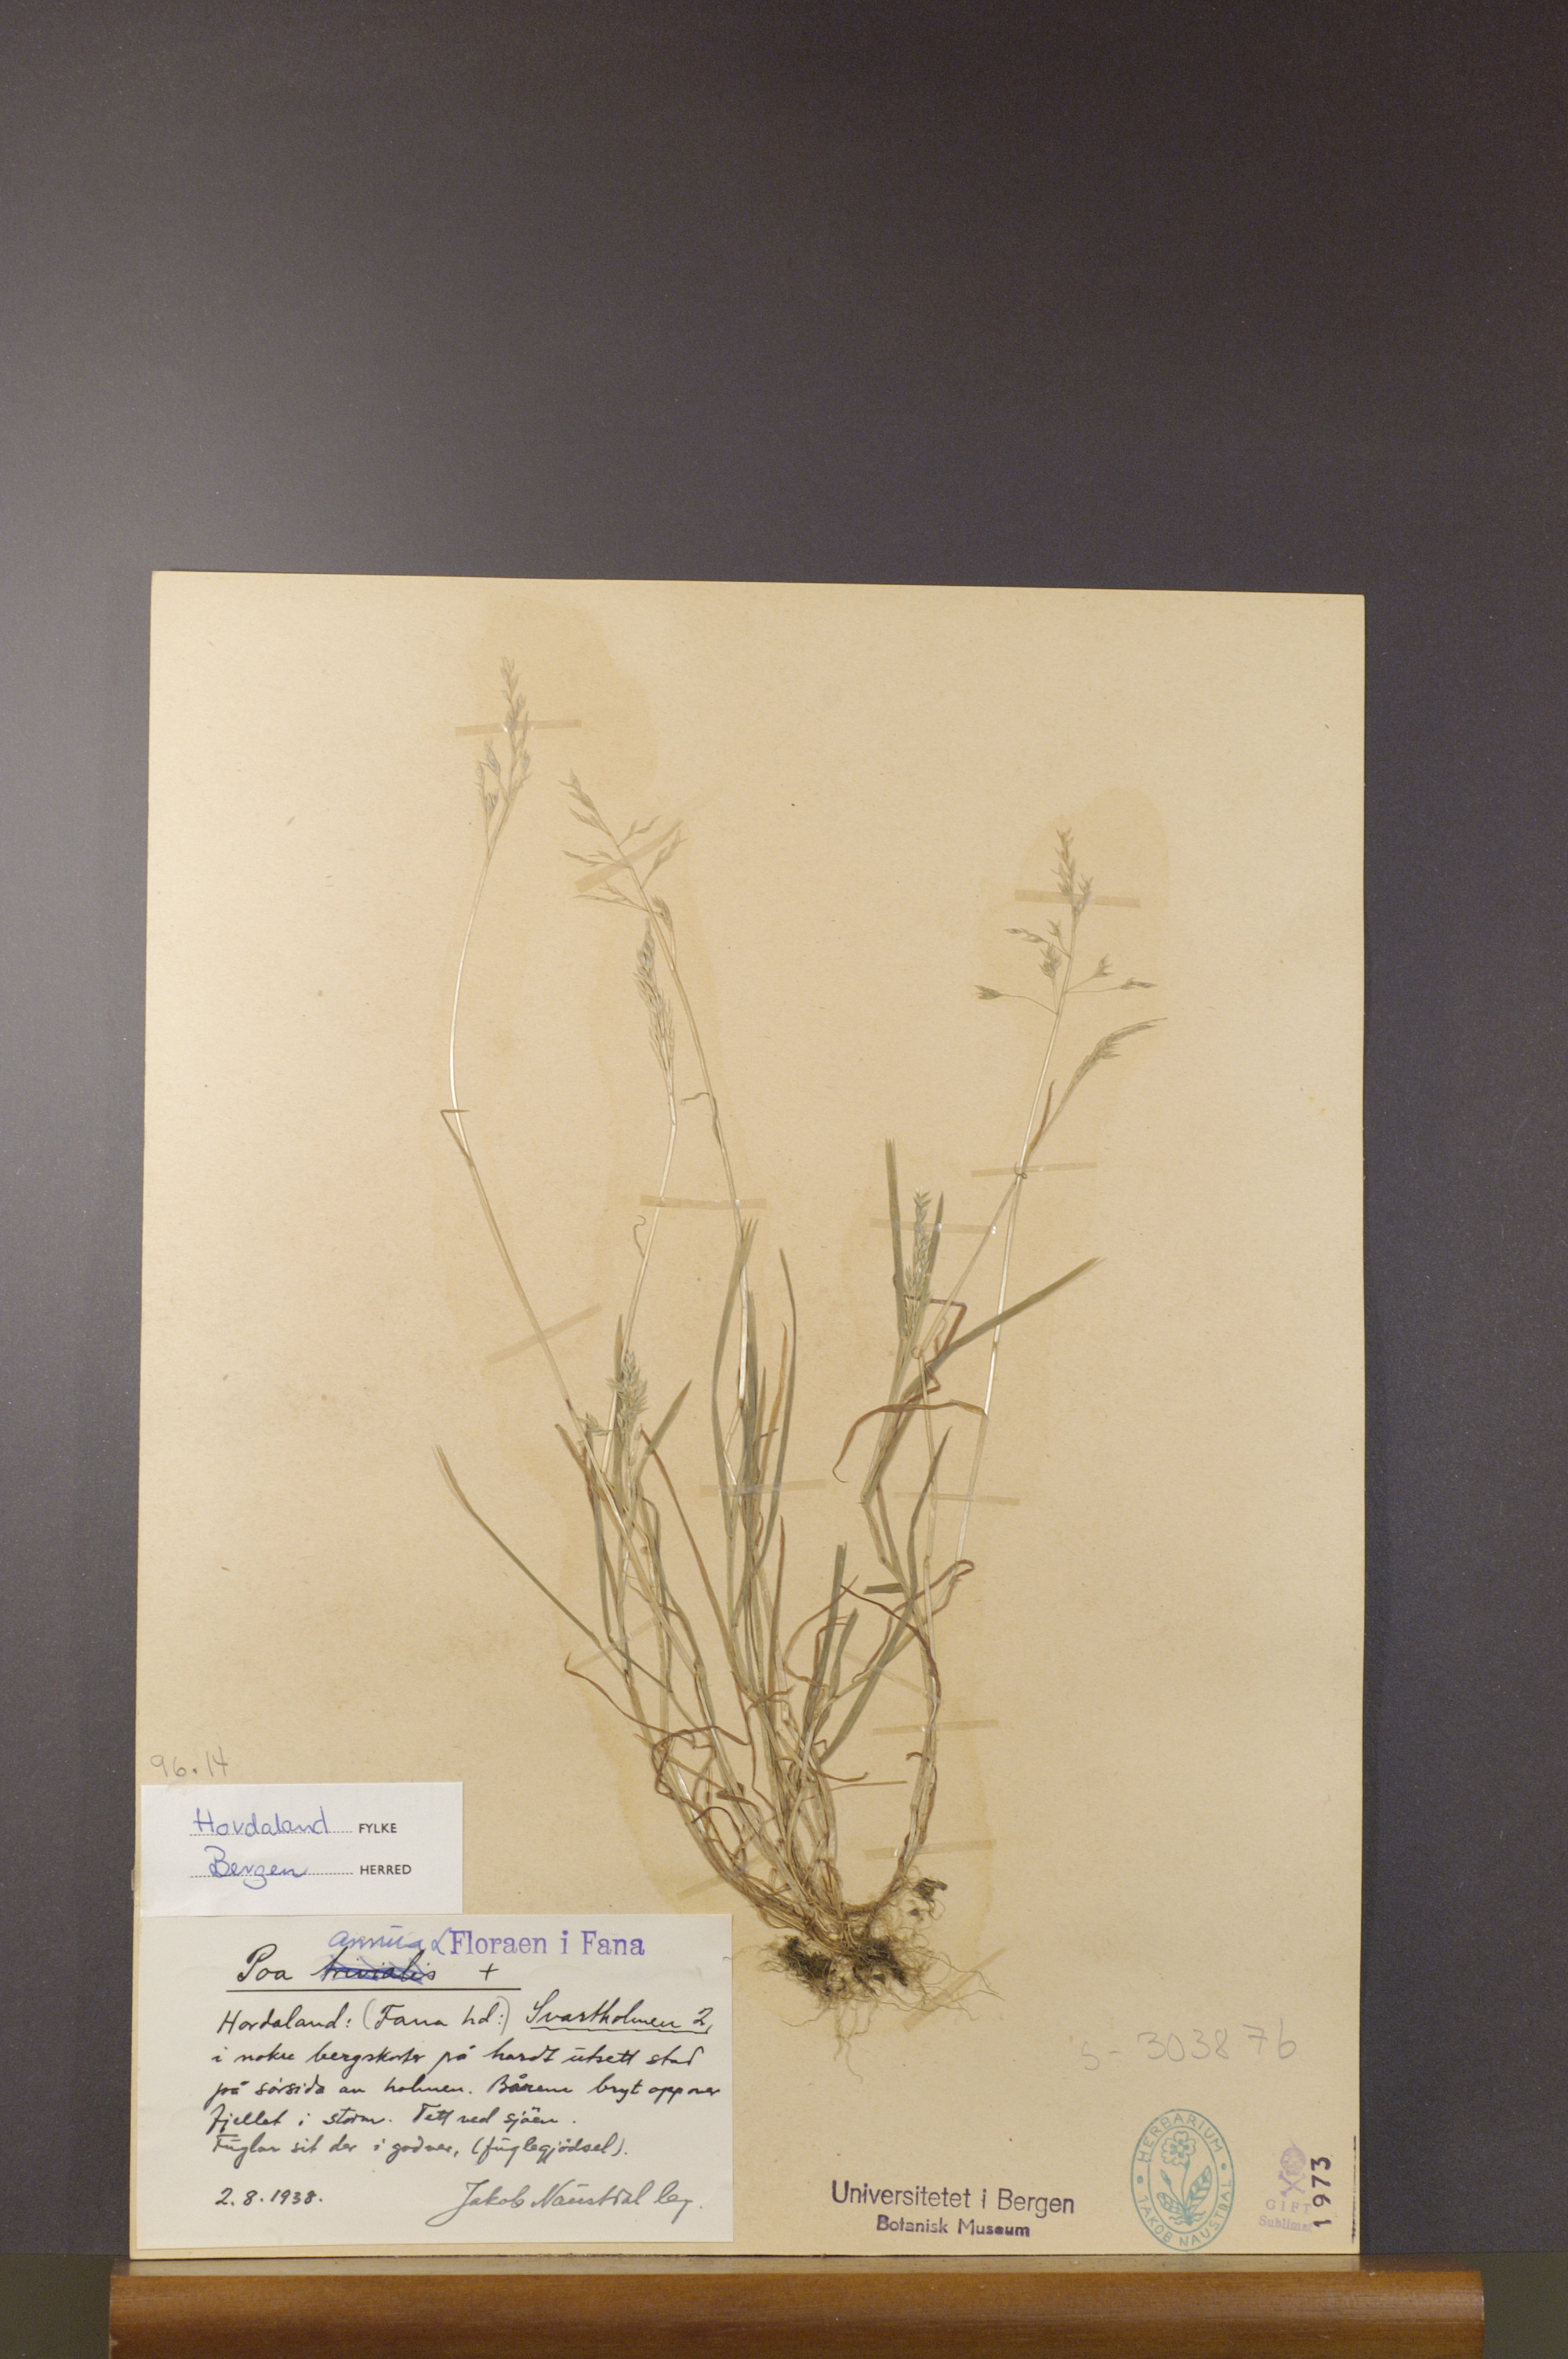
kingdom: Plantae
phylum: Tracheophyta
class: Liliopsida
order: Poales
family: Poaceae
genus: Poa
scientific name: Poa annua
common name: Annual bluegrass
